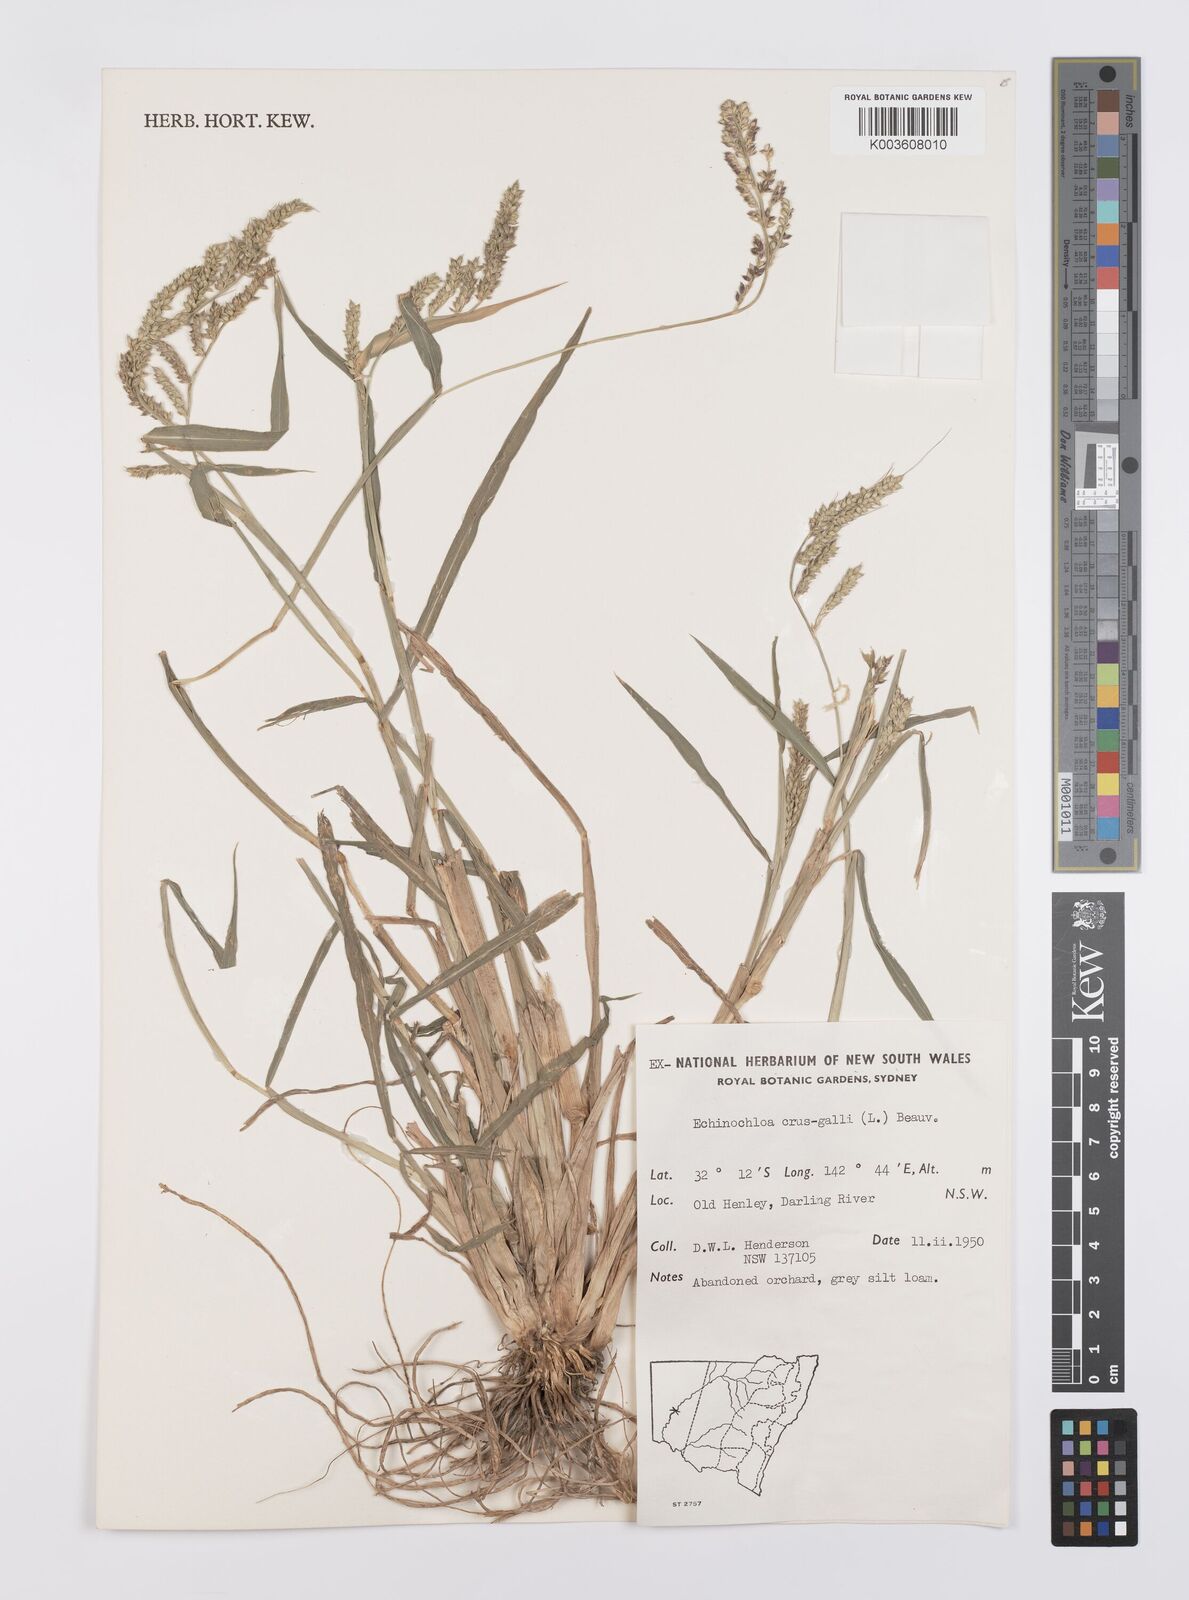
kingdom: Plantae
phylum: Tracheophyta
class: Liliopsida
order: Poales
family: Poaceae
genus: Echinochloa
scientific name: Echinochloa crus-galli
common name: Cockspur
